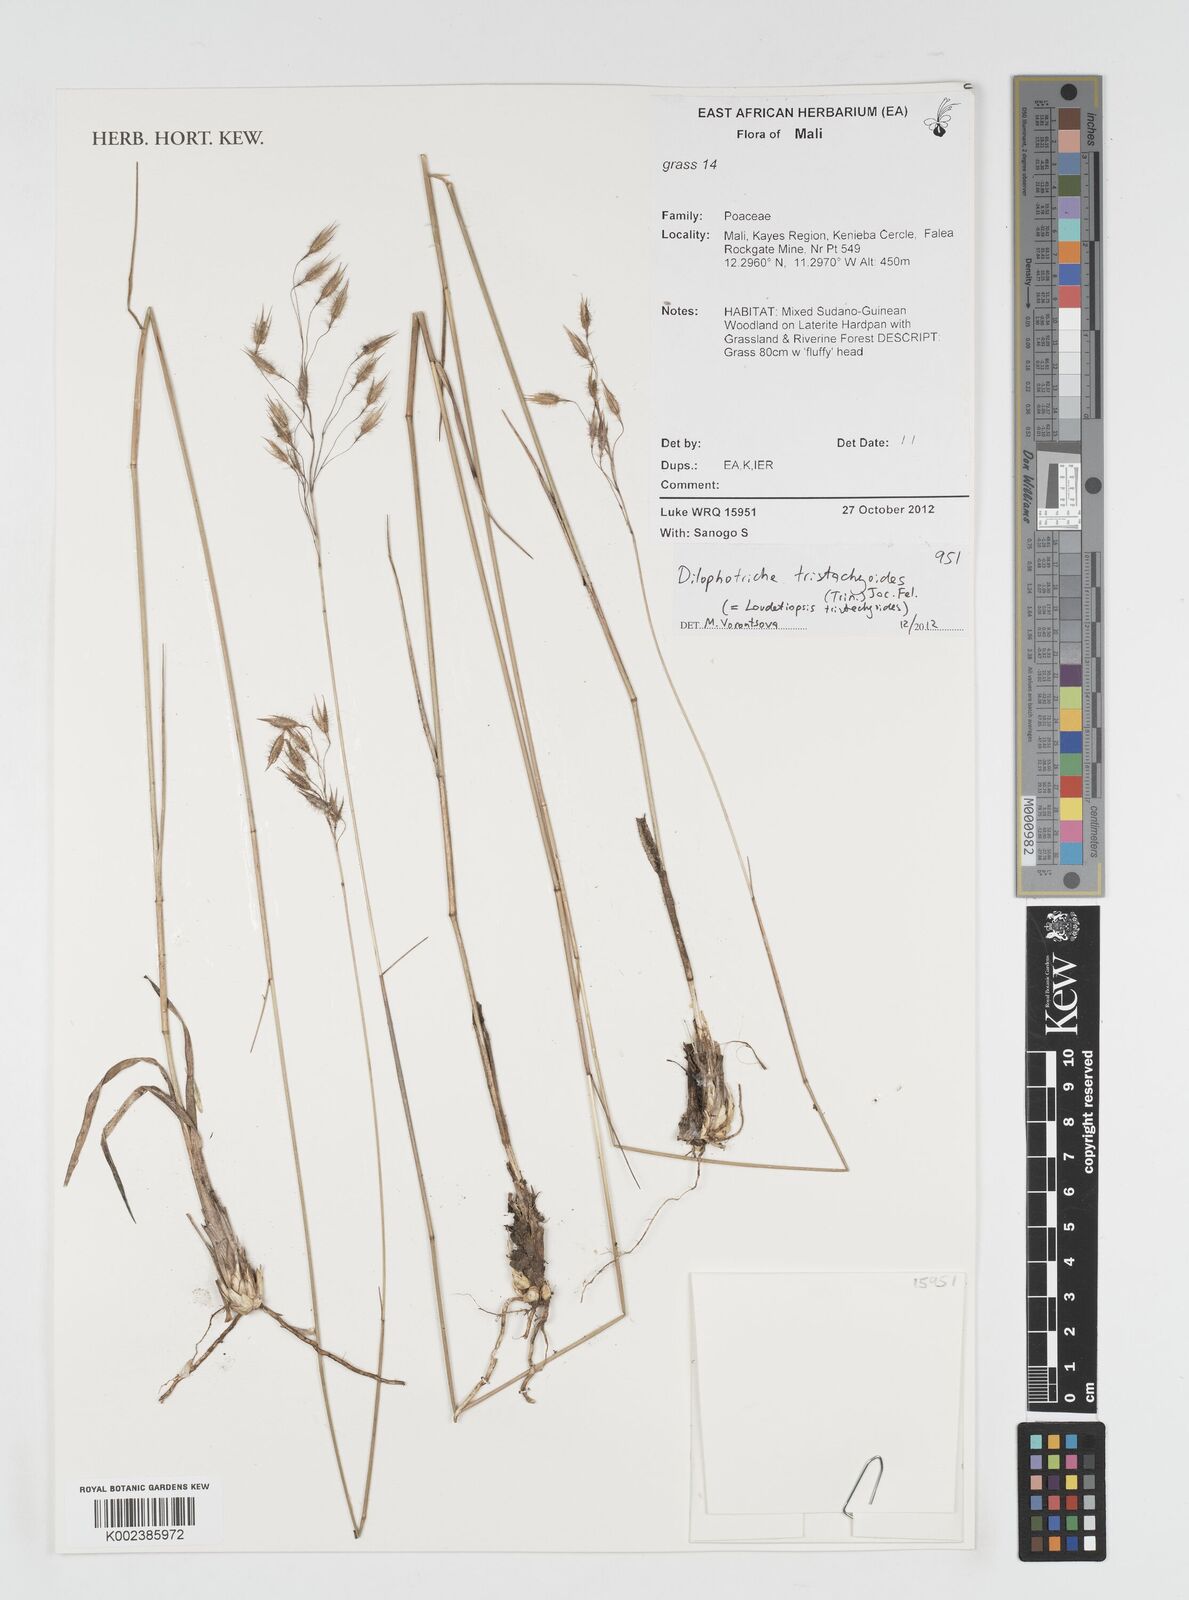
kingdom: Plantae
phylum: Tracheophyta
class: Liliopsida
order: Poales
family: Poaceae
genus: Dilophotriche
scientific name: Dilophotriche tristachyoides
